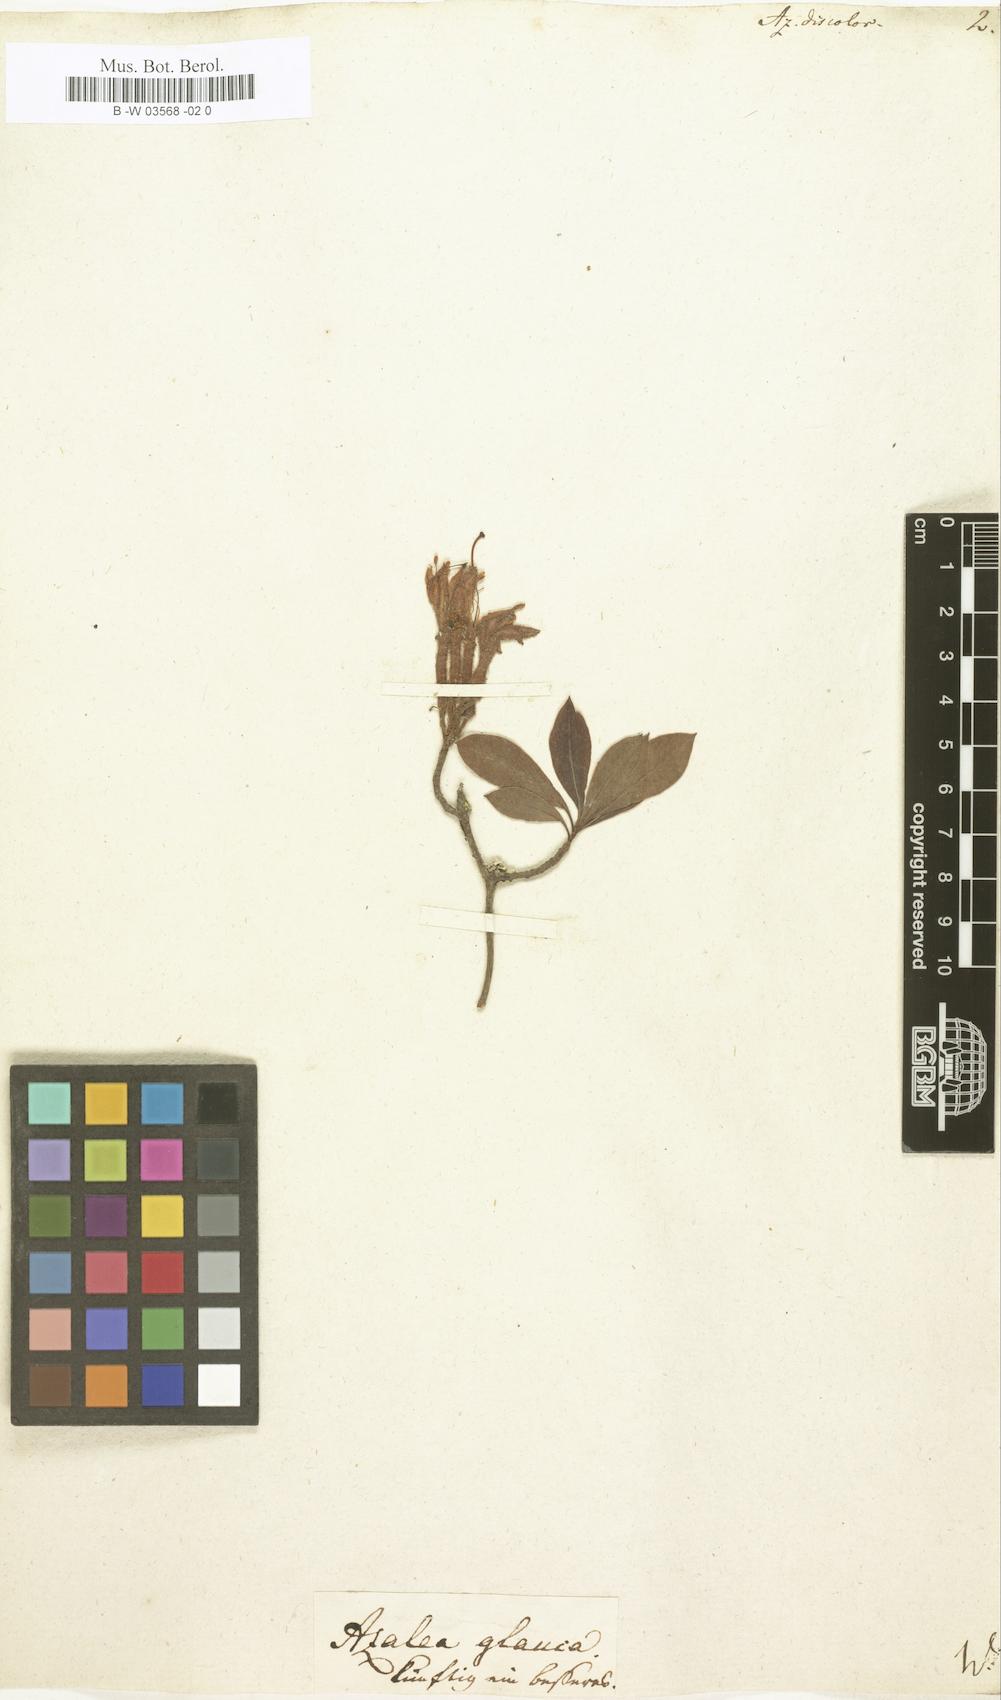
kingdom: Plantae
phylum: Tracheophyta
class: Magnoliopsida
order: Ericales
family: Ericaceae
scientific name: Ericaceae
